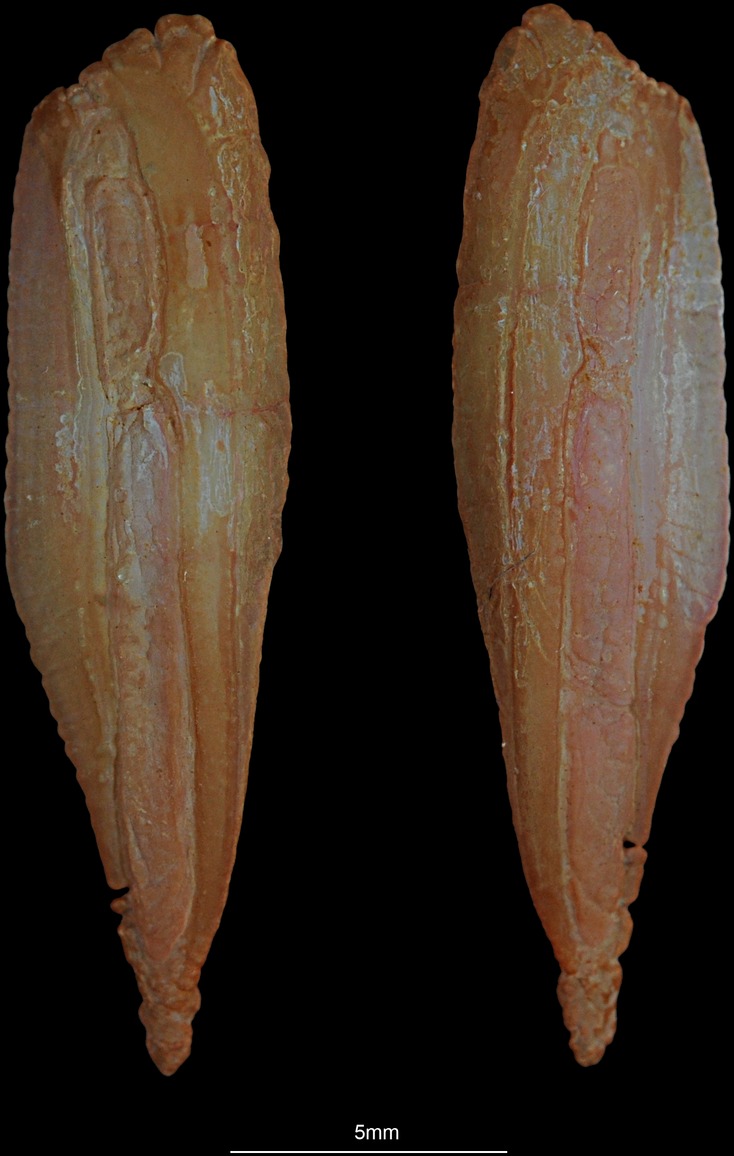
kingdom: Animalia
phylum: Chordata
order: Gadiformes
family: Gadidae
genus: Merlangius
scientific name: Merlangius merlangus
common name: Whiting
